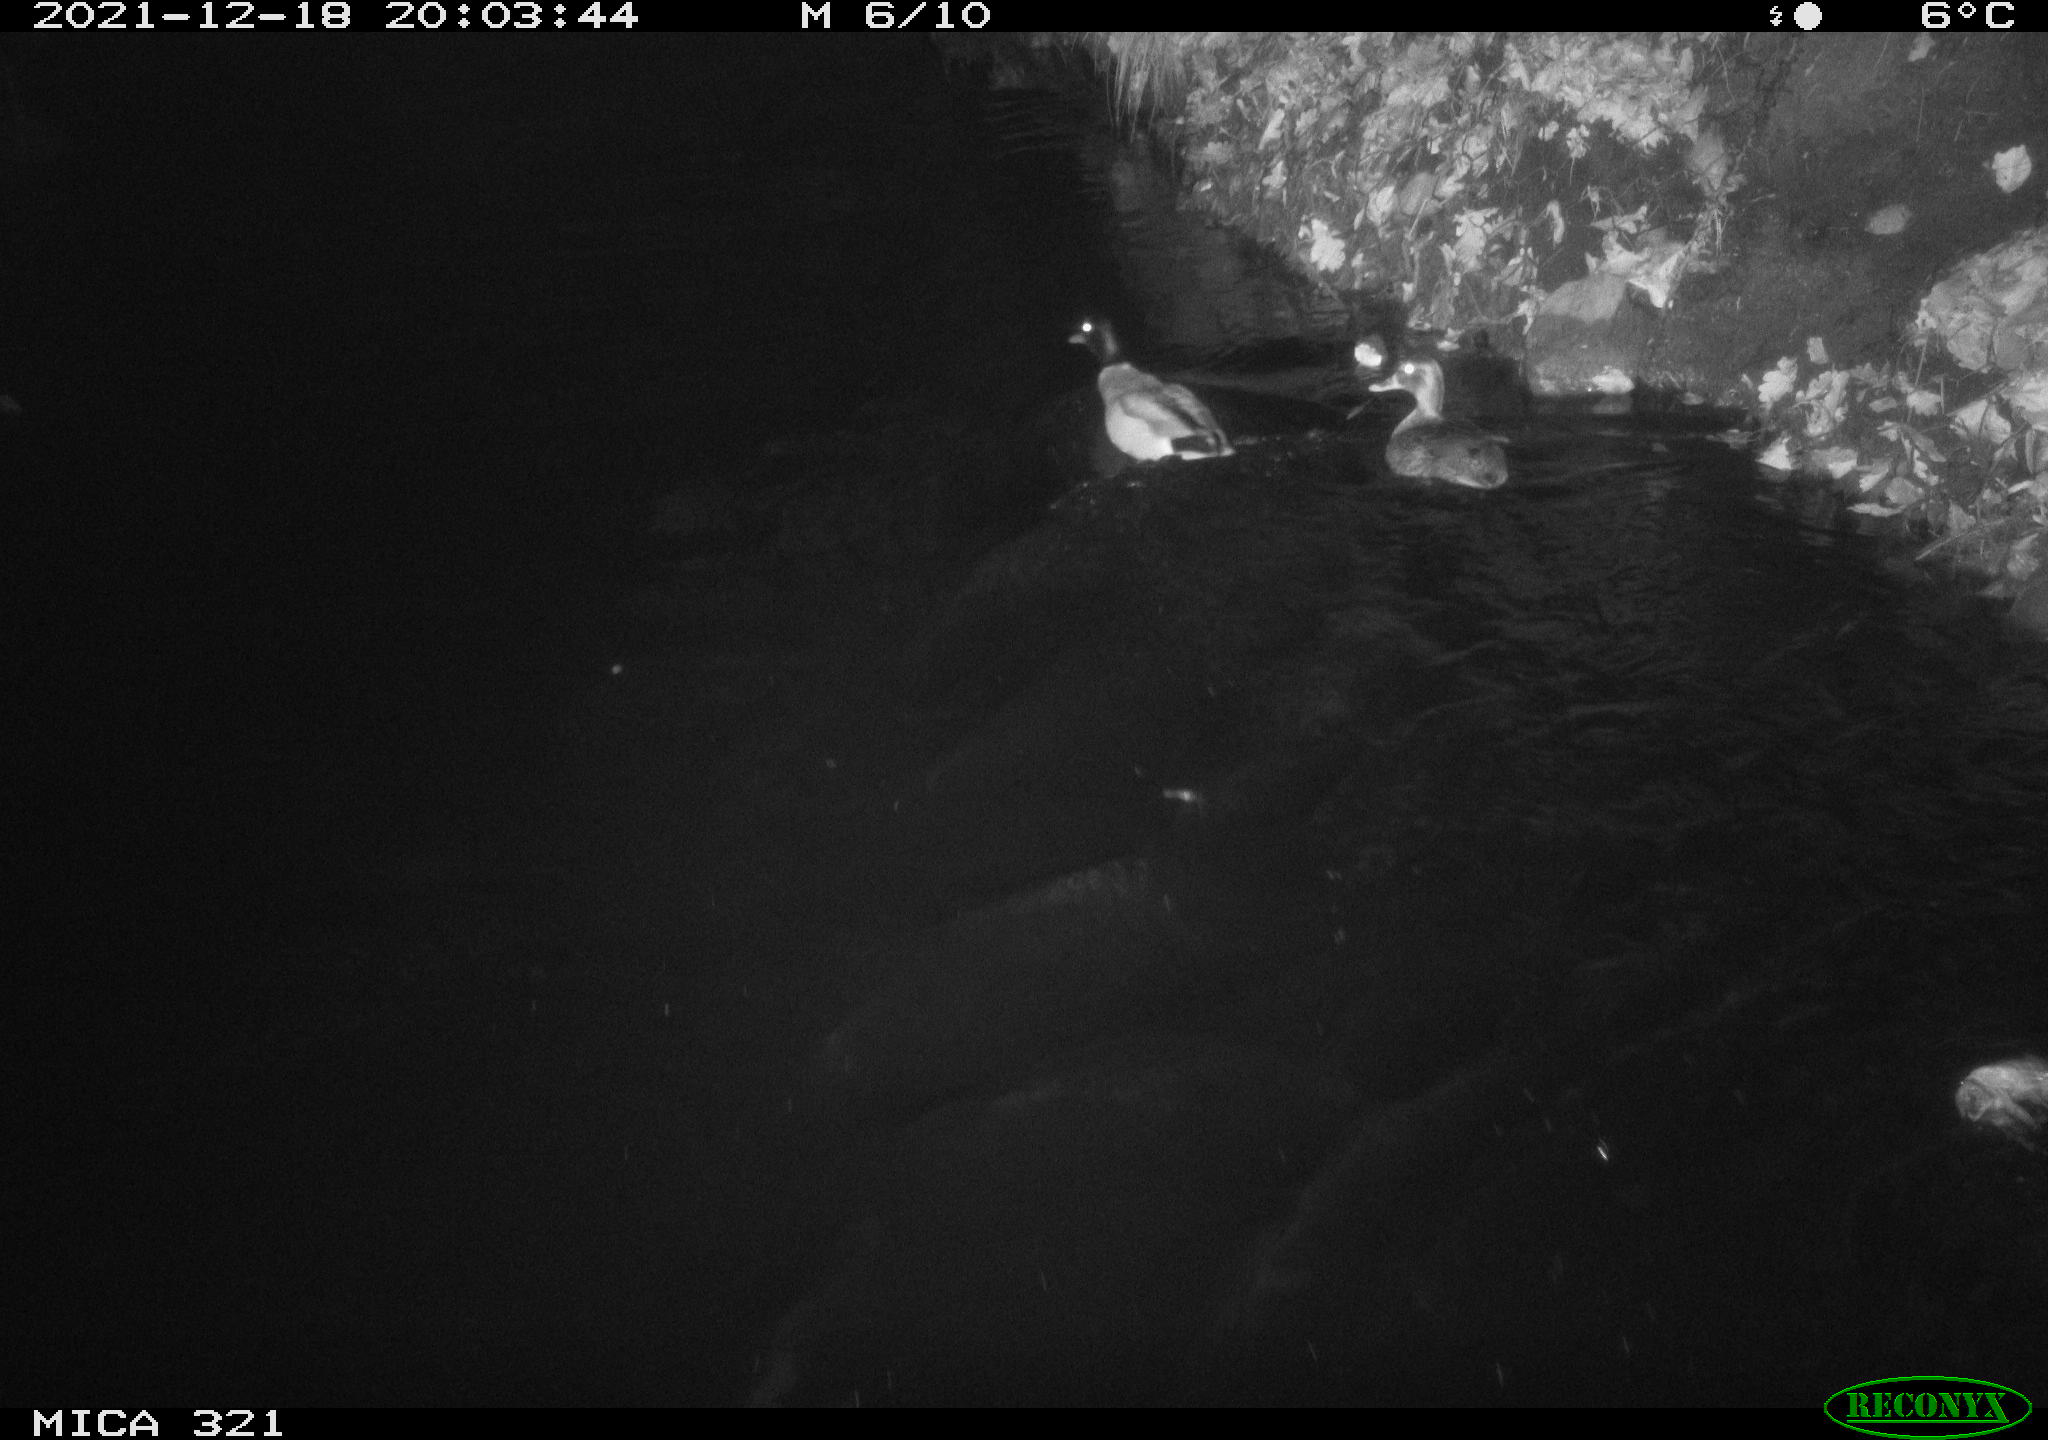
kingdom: Animalia
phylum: Chordata
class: Aves
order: Anseriformes
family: Anatidae
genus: Anas
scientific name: Anas
